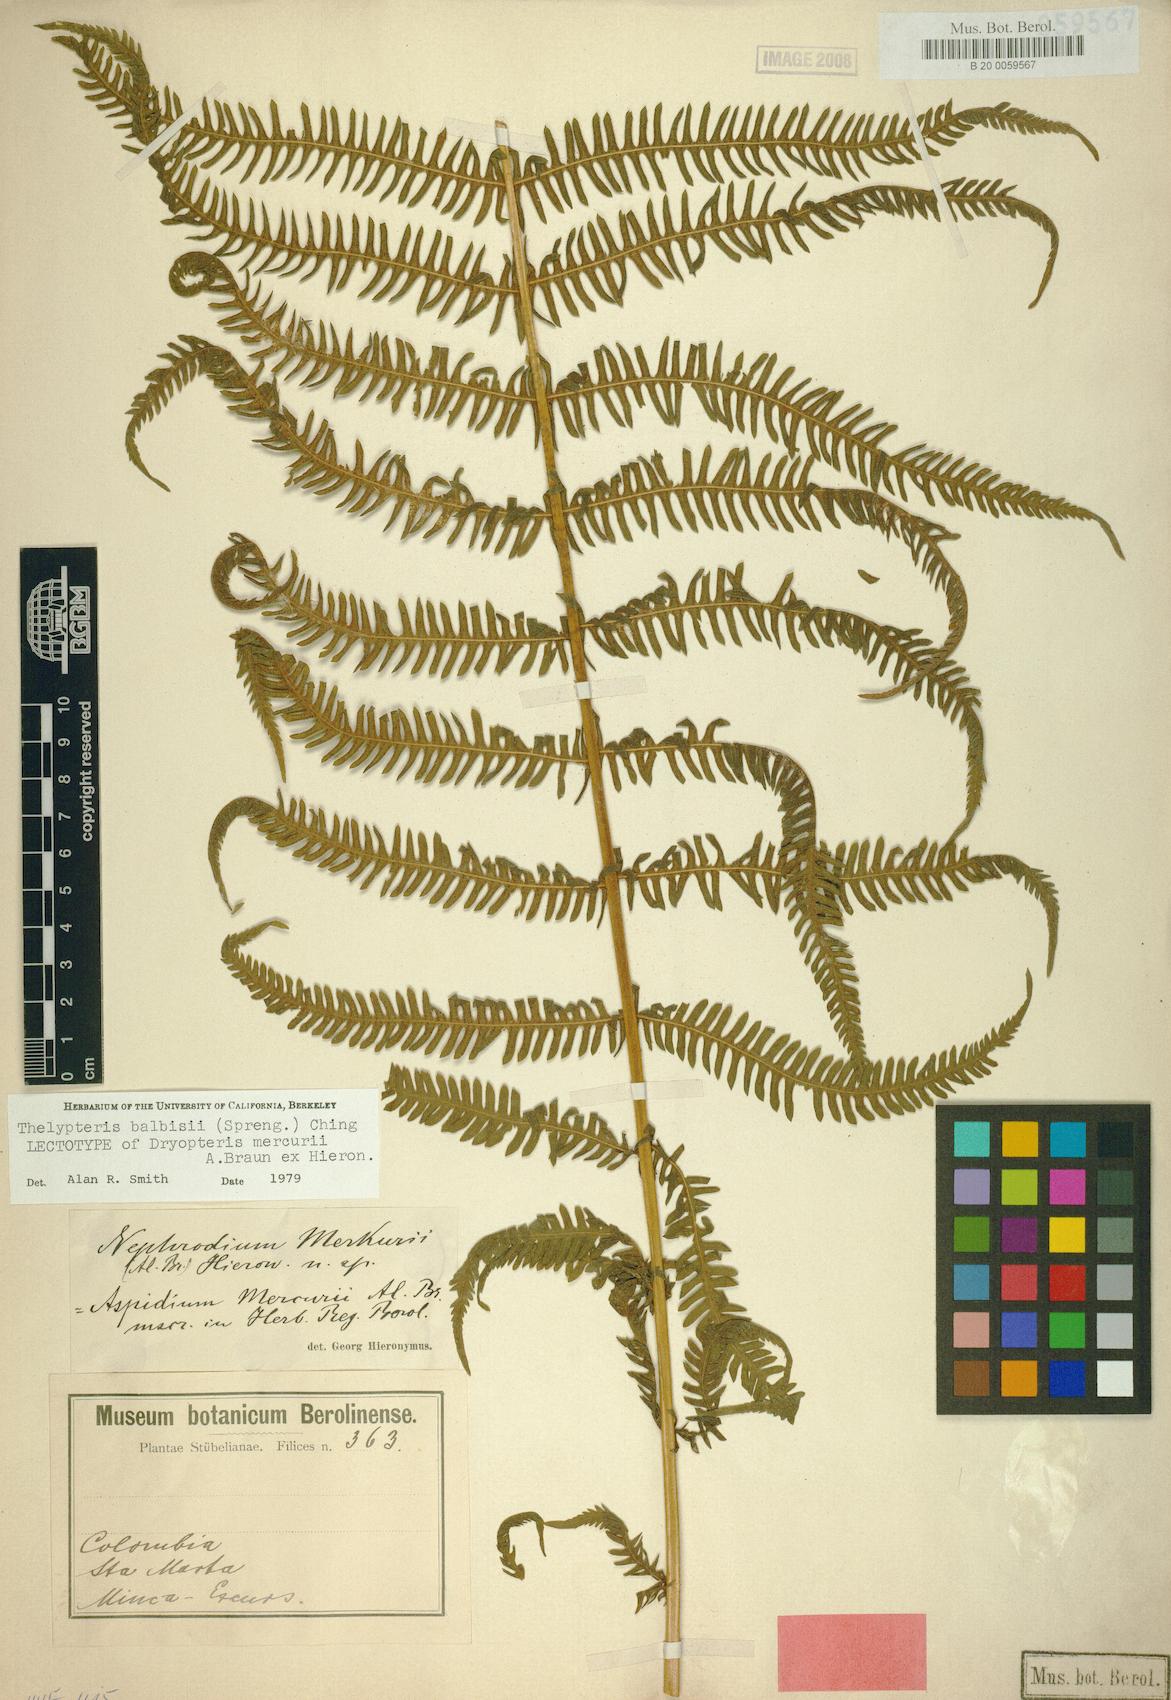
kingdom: Plantae
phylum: Tracheophyta
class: Polypodiopsida
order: Polypodiales
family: Thelypteridaceae
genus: Amauropelta
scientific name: Amauropelta balbisii
